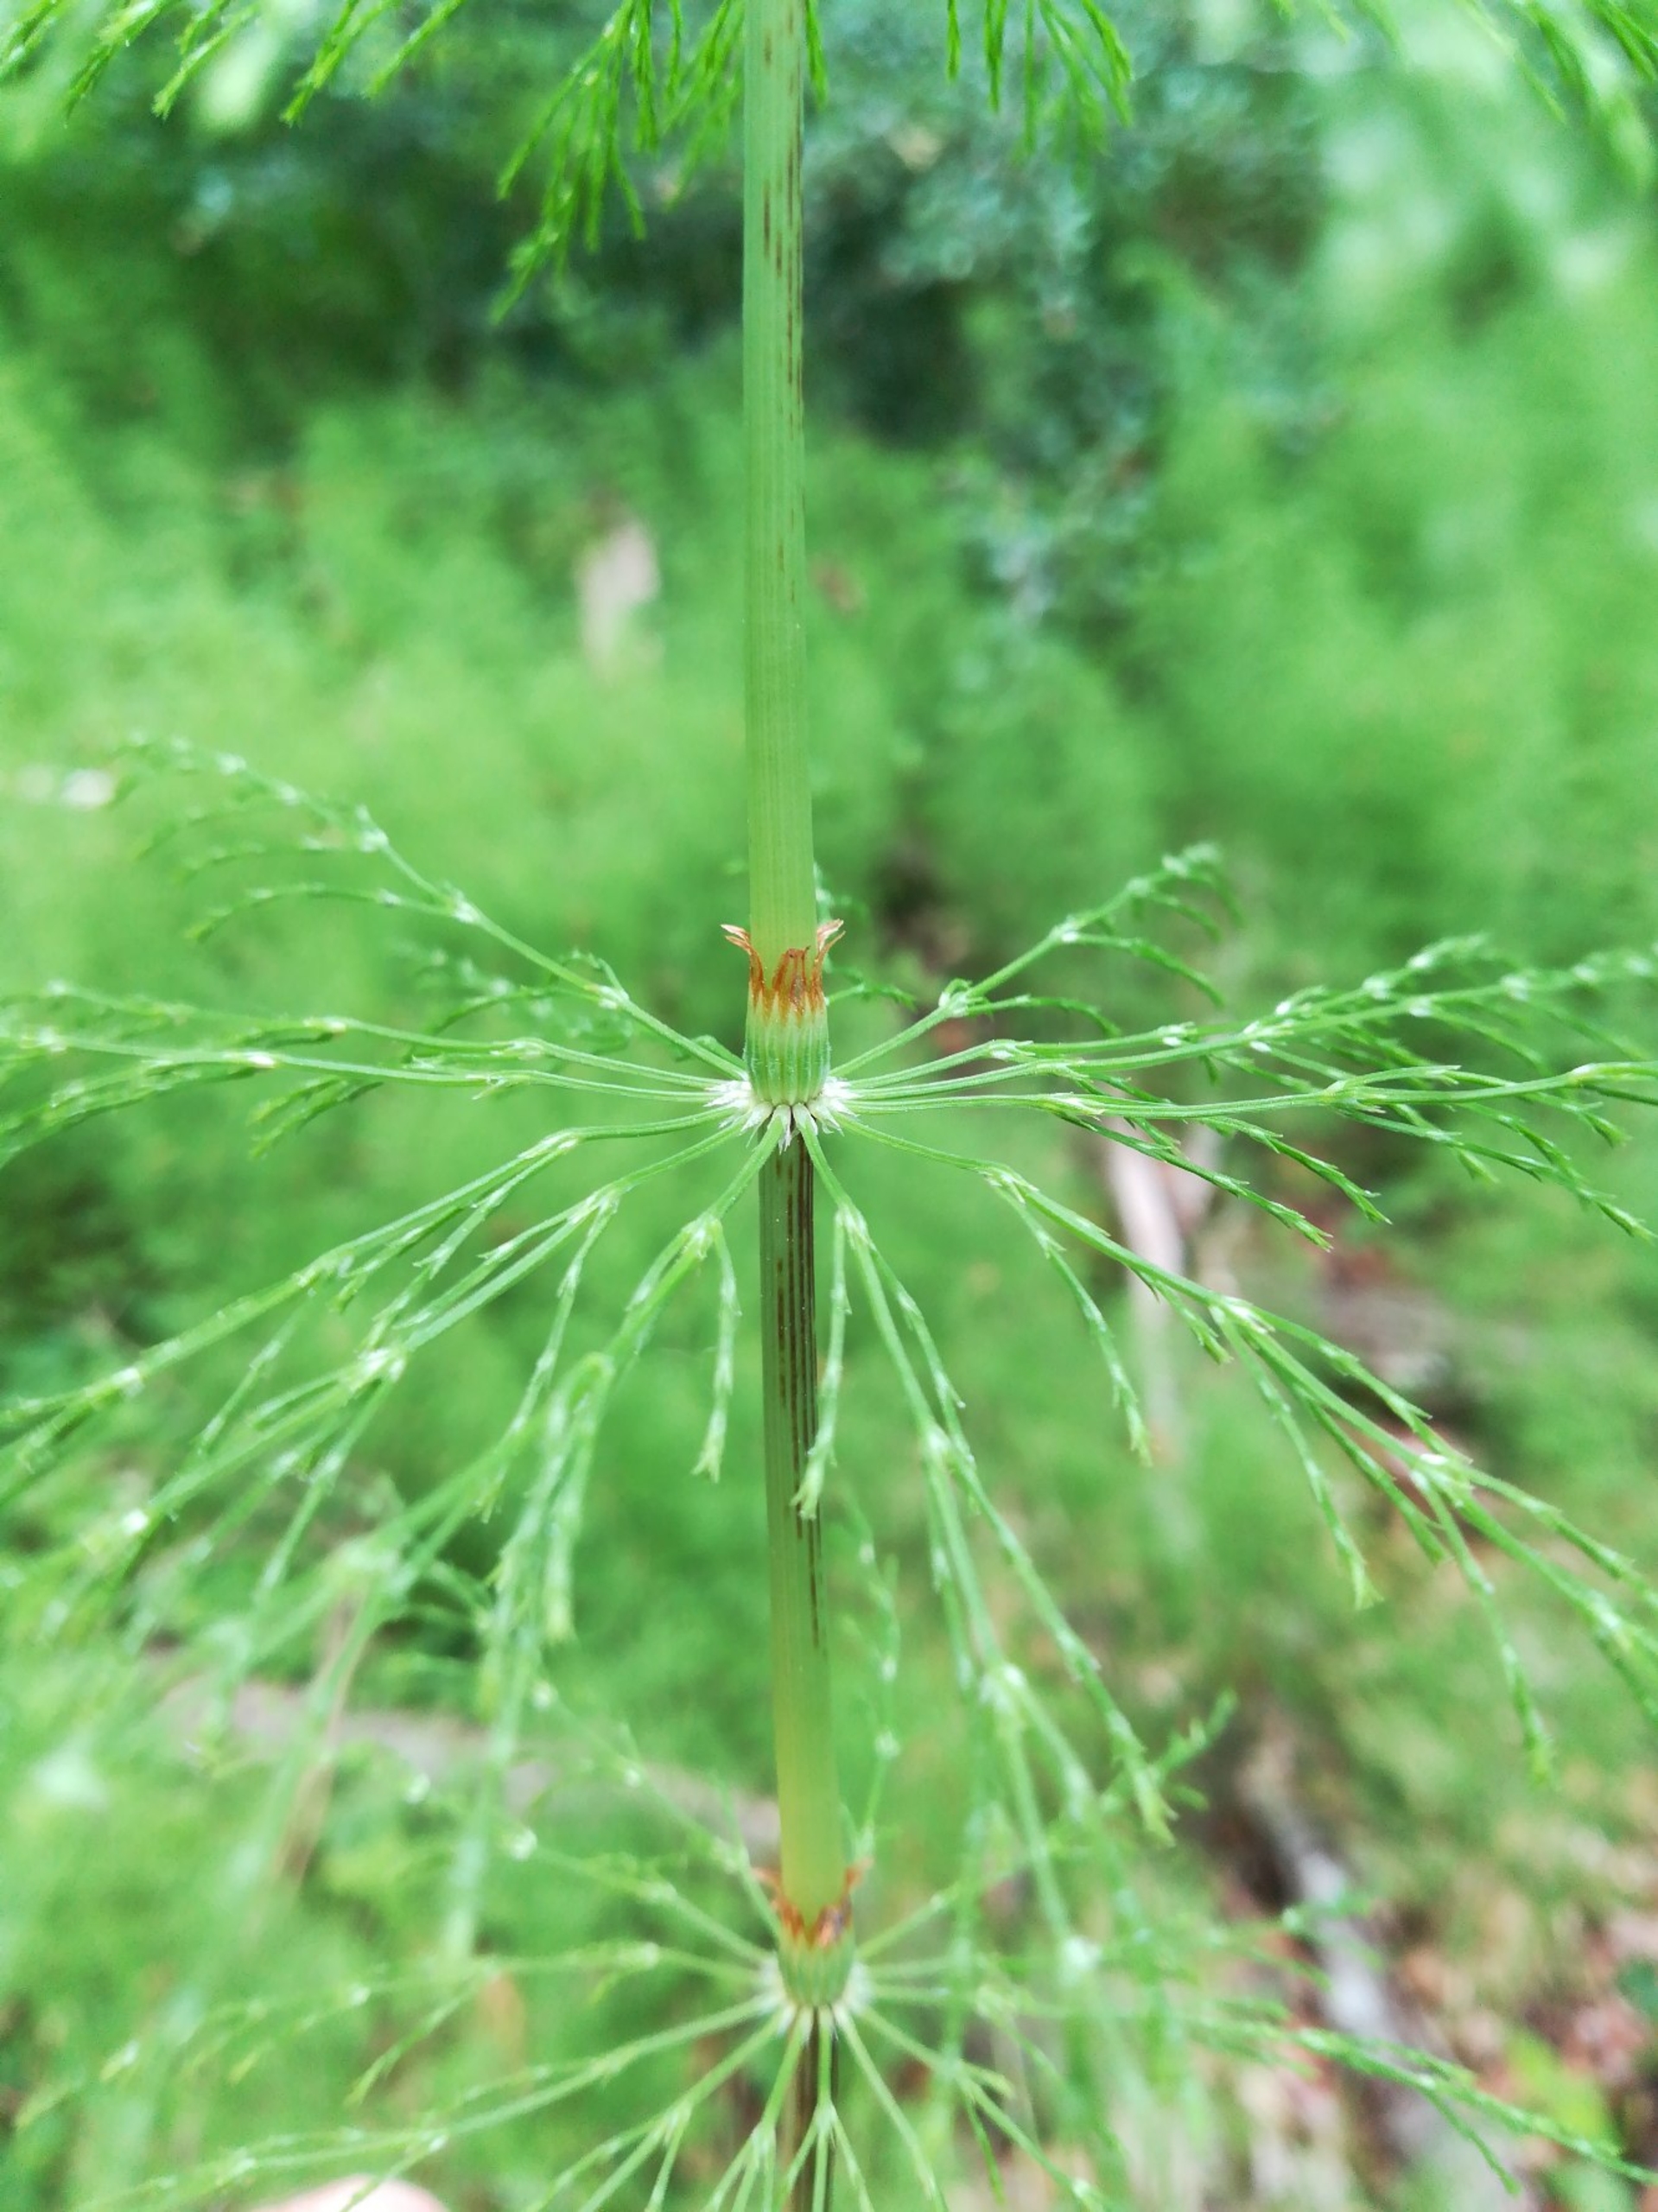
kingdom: Plantae
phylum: Tracheophyta
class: Polypodiopsida
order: Equisetales
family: Equisetaceae
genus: Equisetum
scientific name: Equisetum sylvaticum
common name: Skov-padderok
